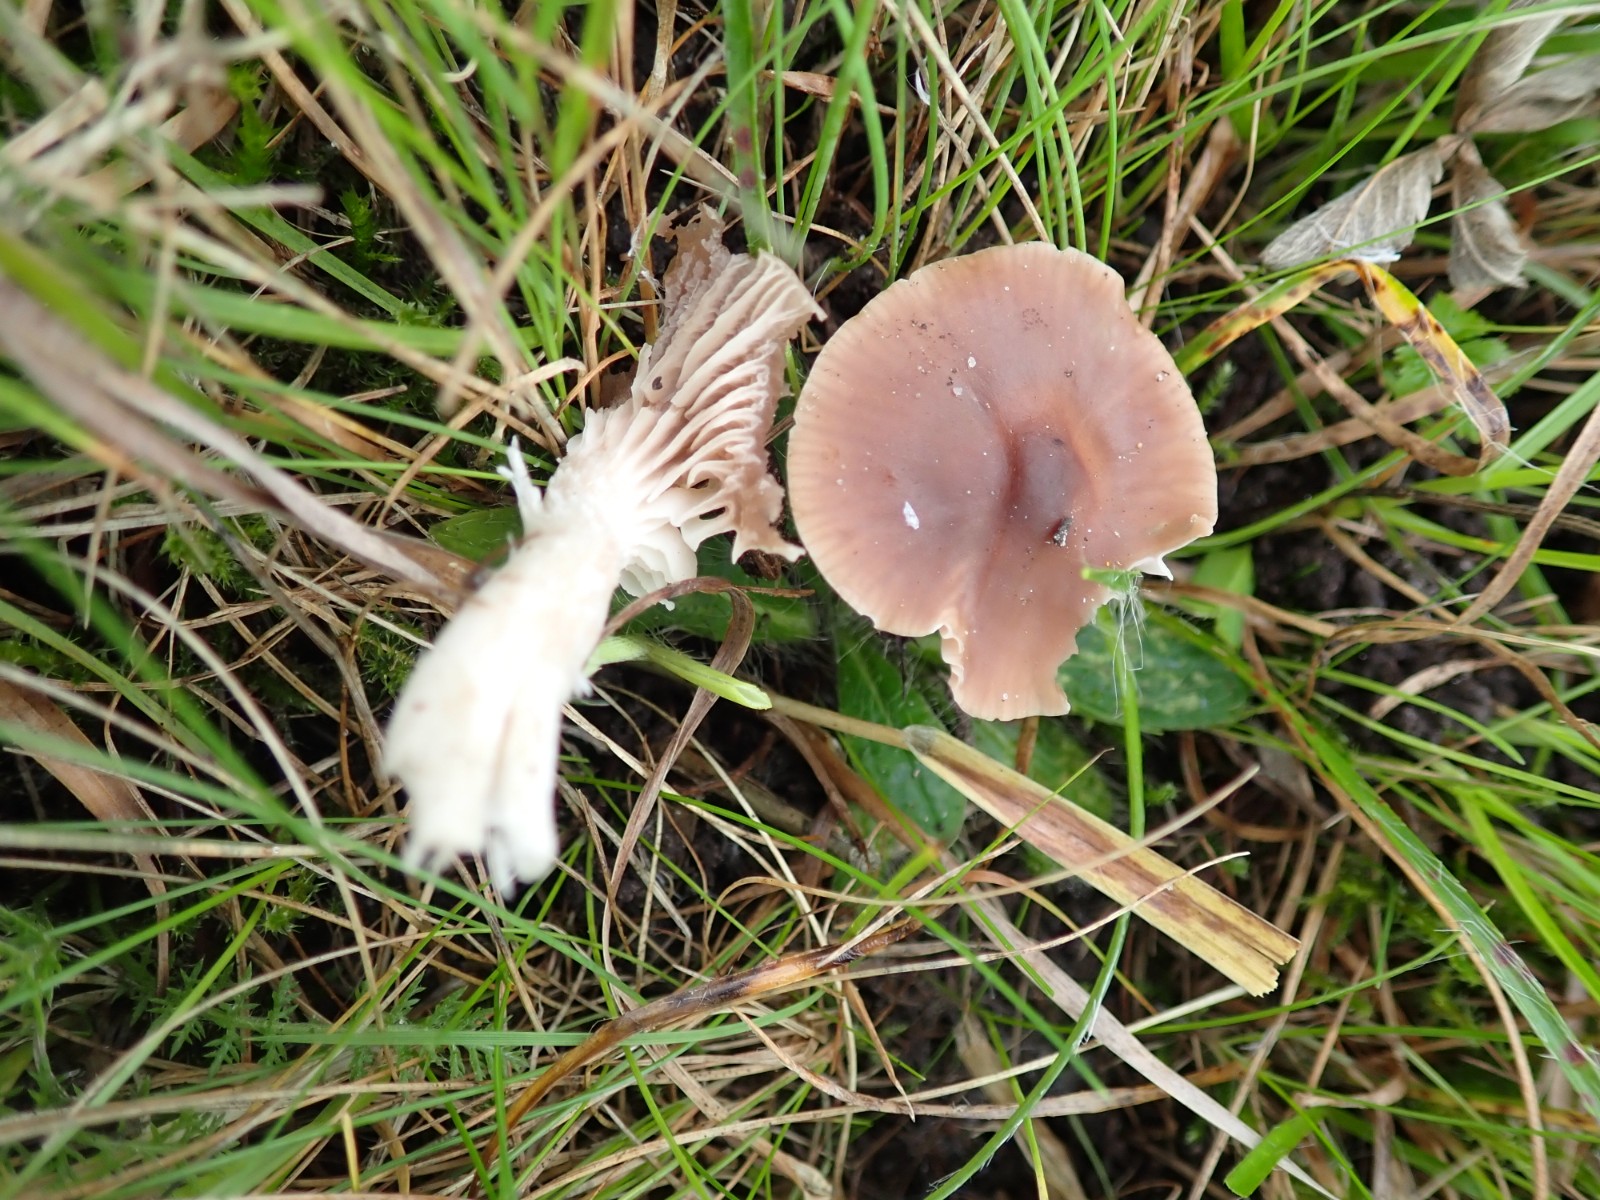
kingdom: Fungi
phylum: Basidiomycota
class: Agaricomycetes
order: Agaricales
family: Hygrophoraceae
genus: Cuphophyllus
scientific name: Cuphophyllus colemannianus
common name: rødbrun vokshat
